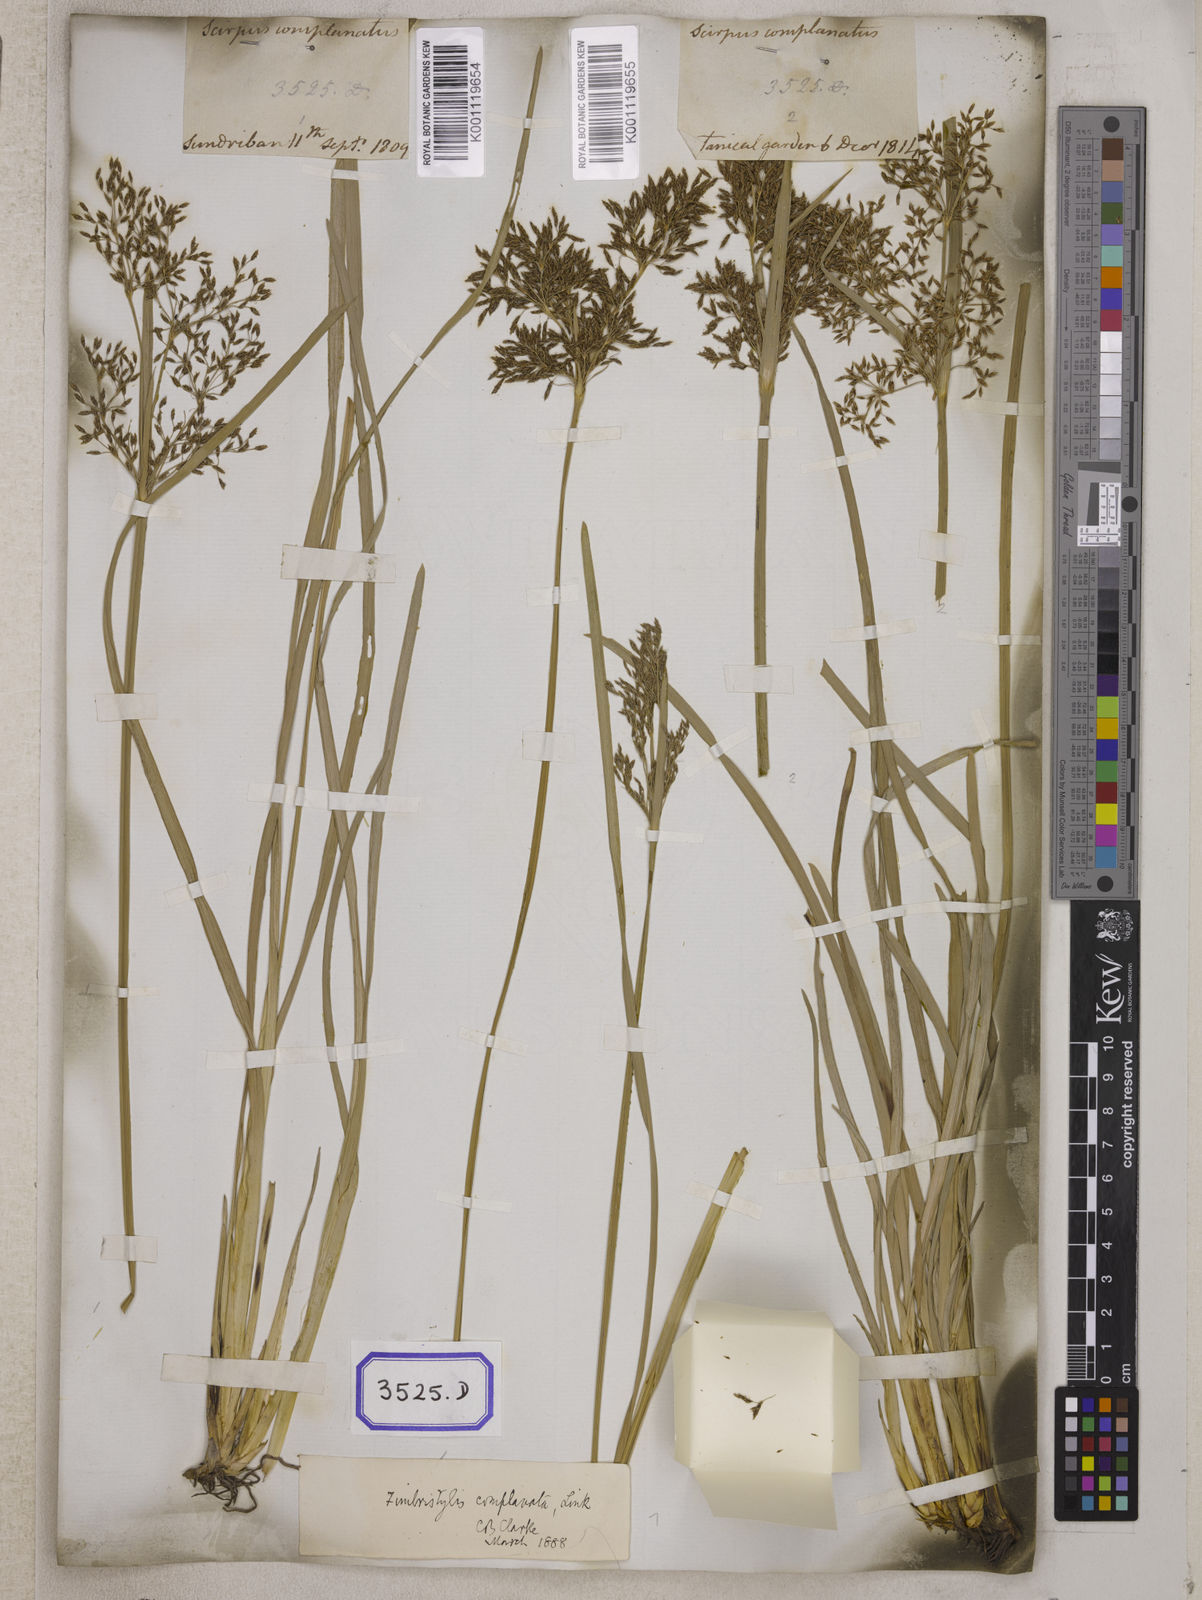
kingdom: Plantae
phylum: Tracheophyta
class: Liliopsida
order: Poales
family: Cyperaceae
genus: Fimbristylis
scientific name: Fimbristylis
